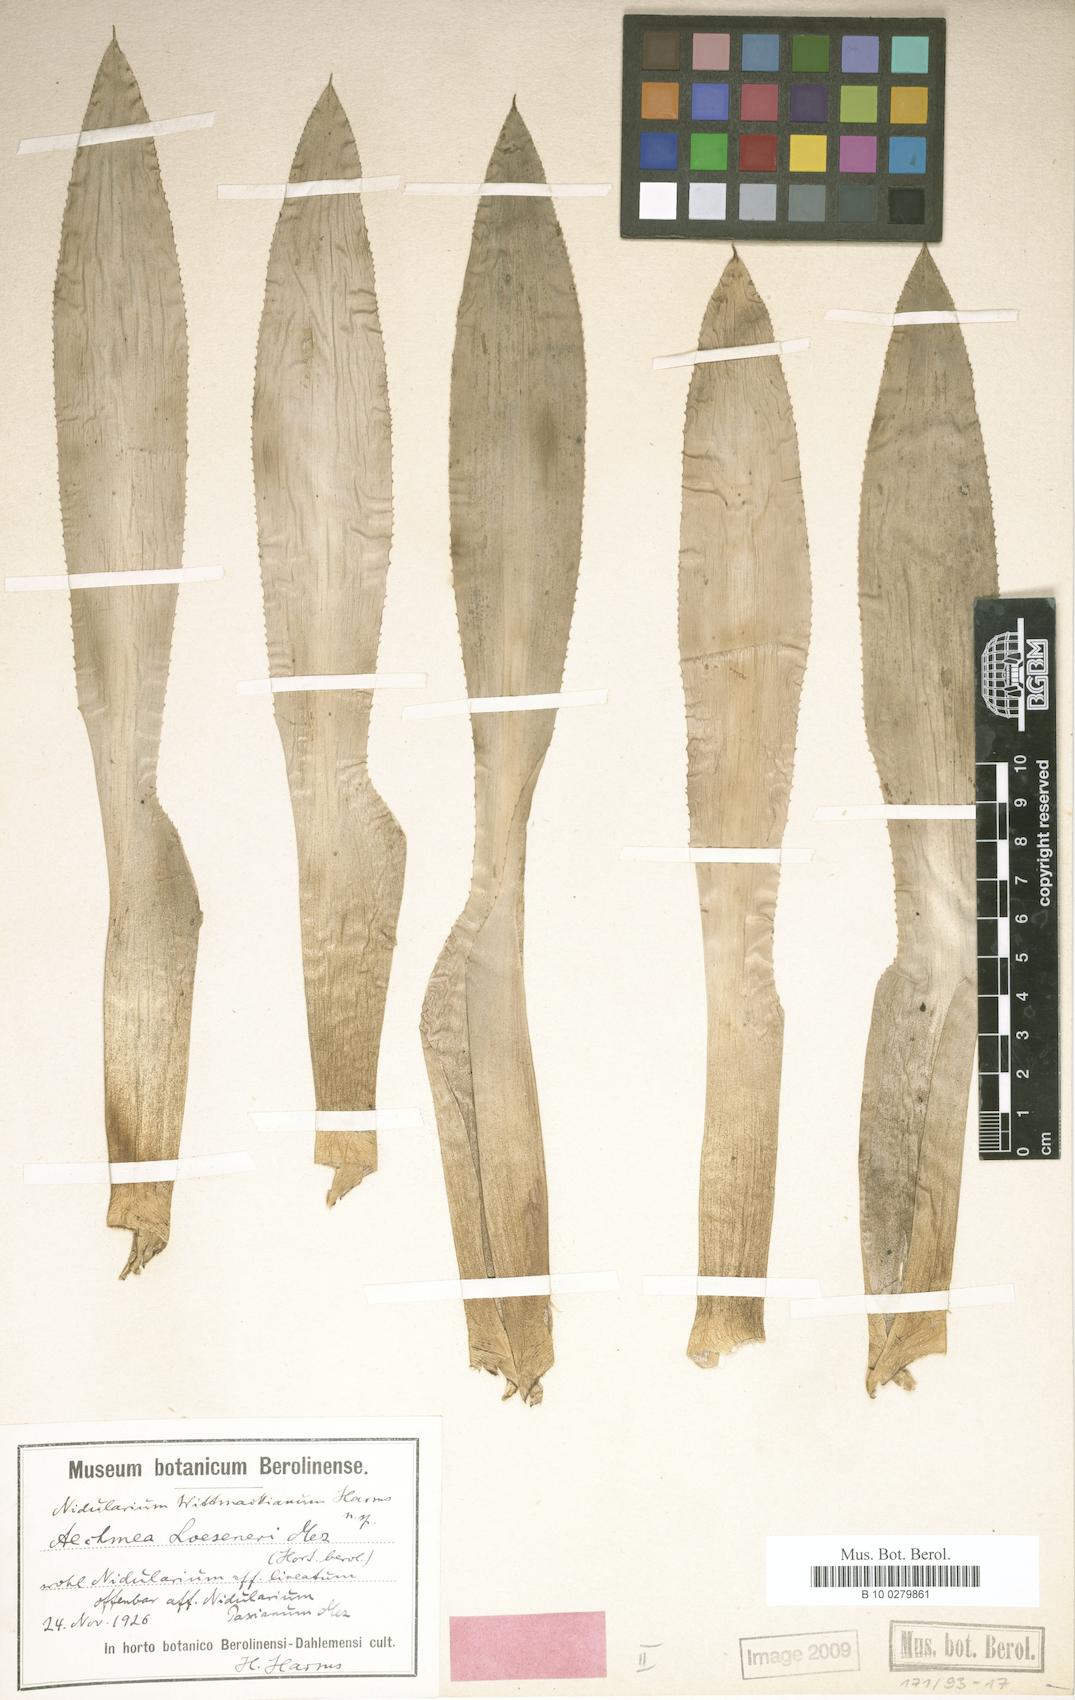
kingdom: Plantae
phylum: Tracheophyta
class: Liliopsida
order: Poales
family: Bromeliaceae
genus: Nidularium
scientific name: Nidularium longiflorum
